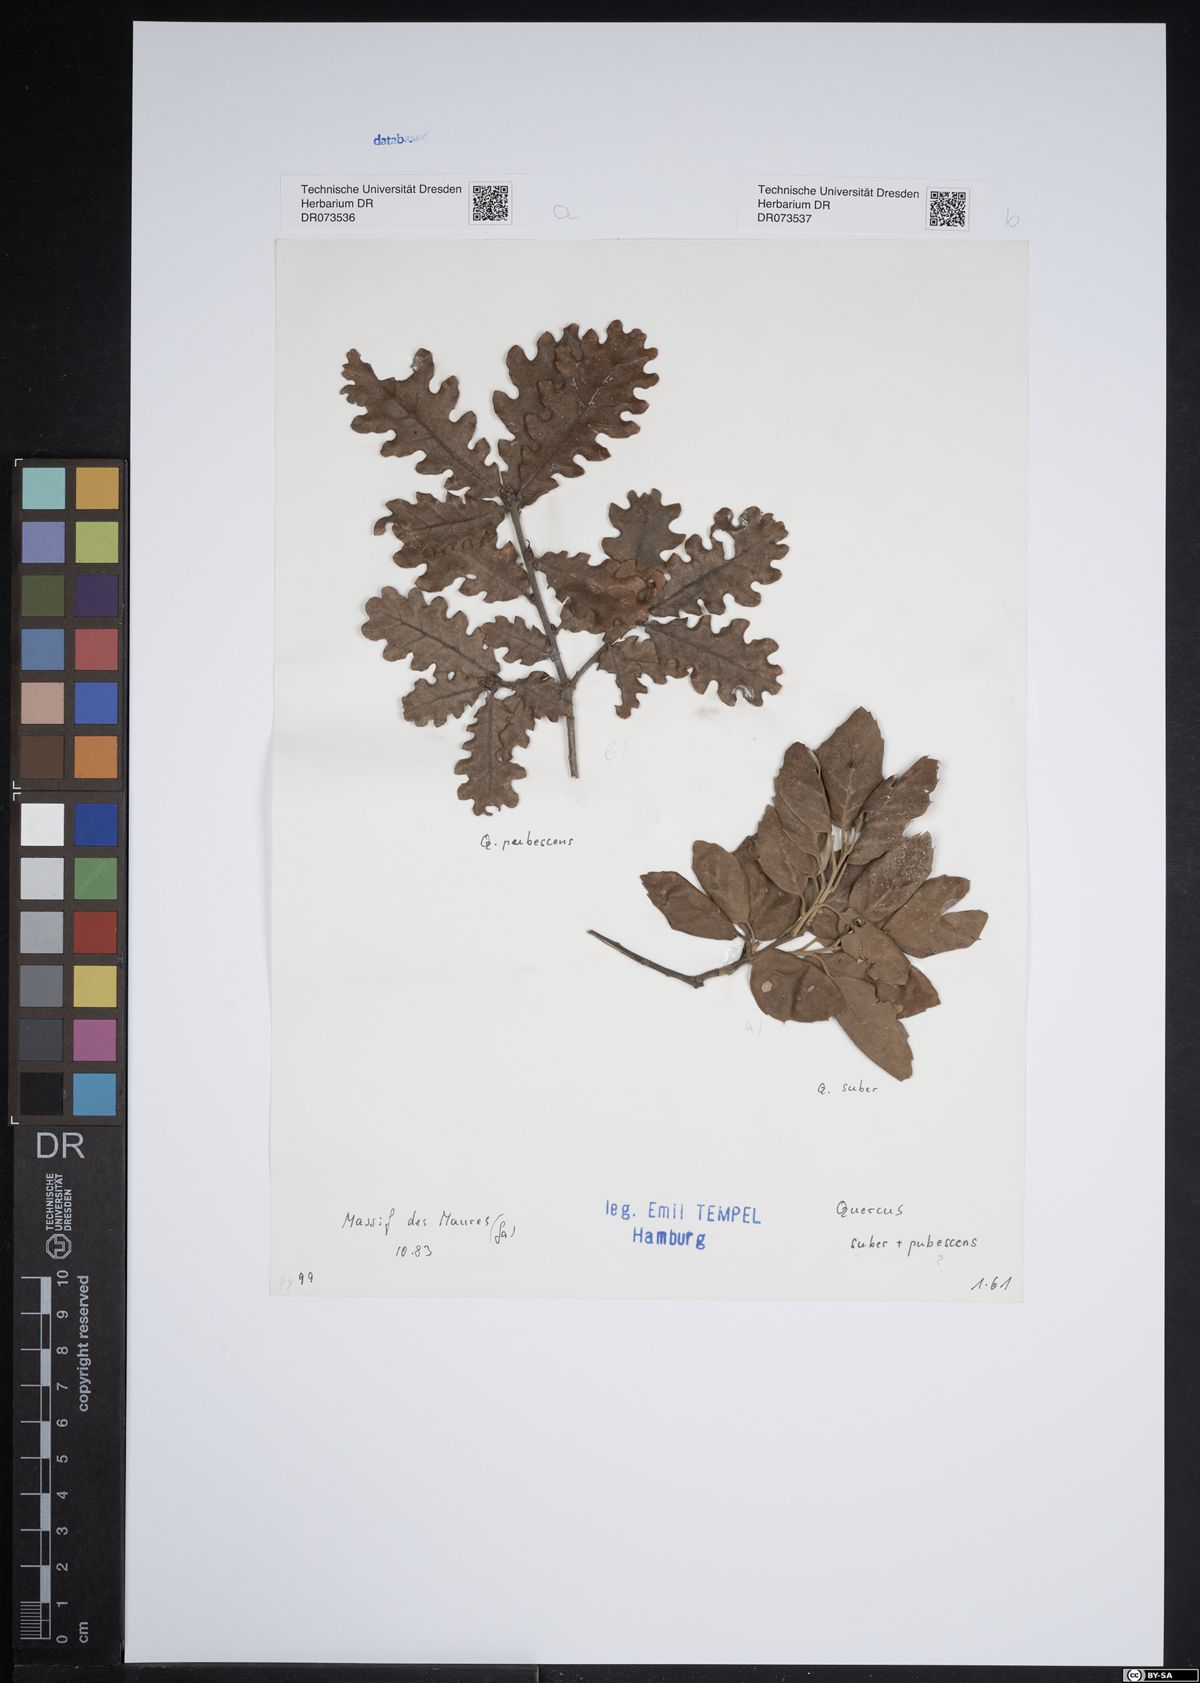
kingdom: Plantae
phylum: Tracheophyta
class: Magnoliopsida
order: Fagales
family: Fagaceae
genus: Quercus
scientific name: Quercus suber
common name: Cork oak
